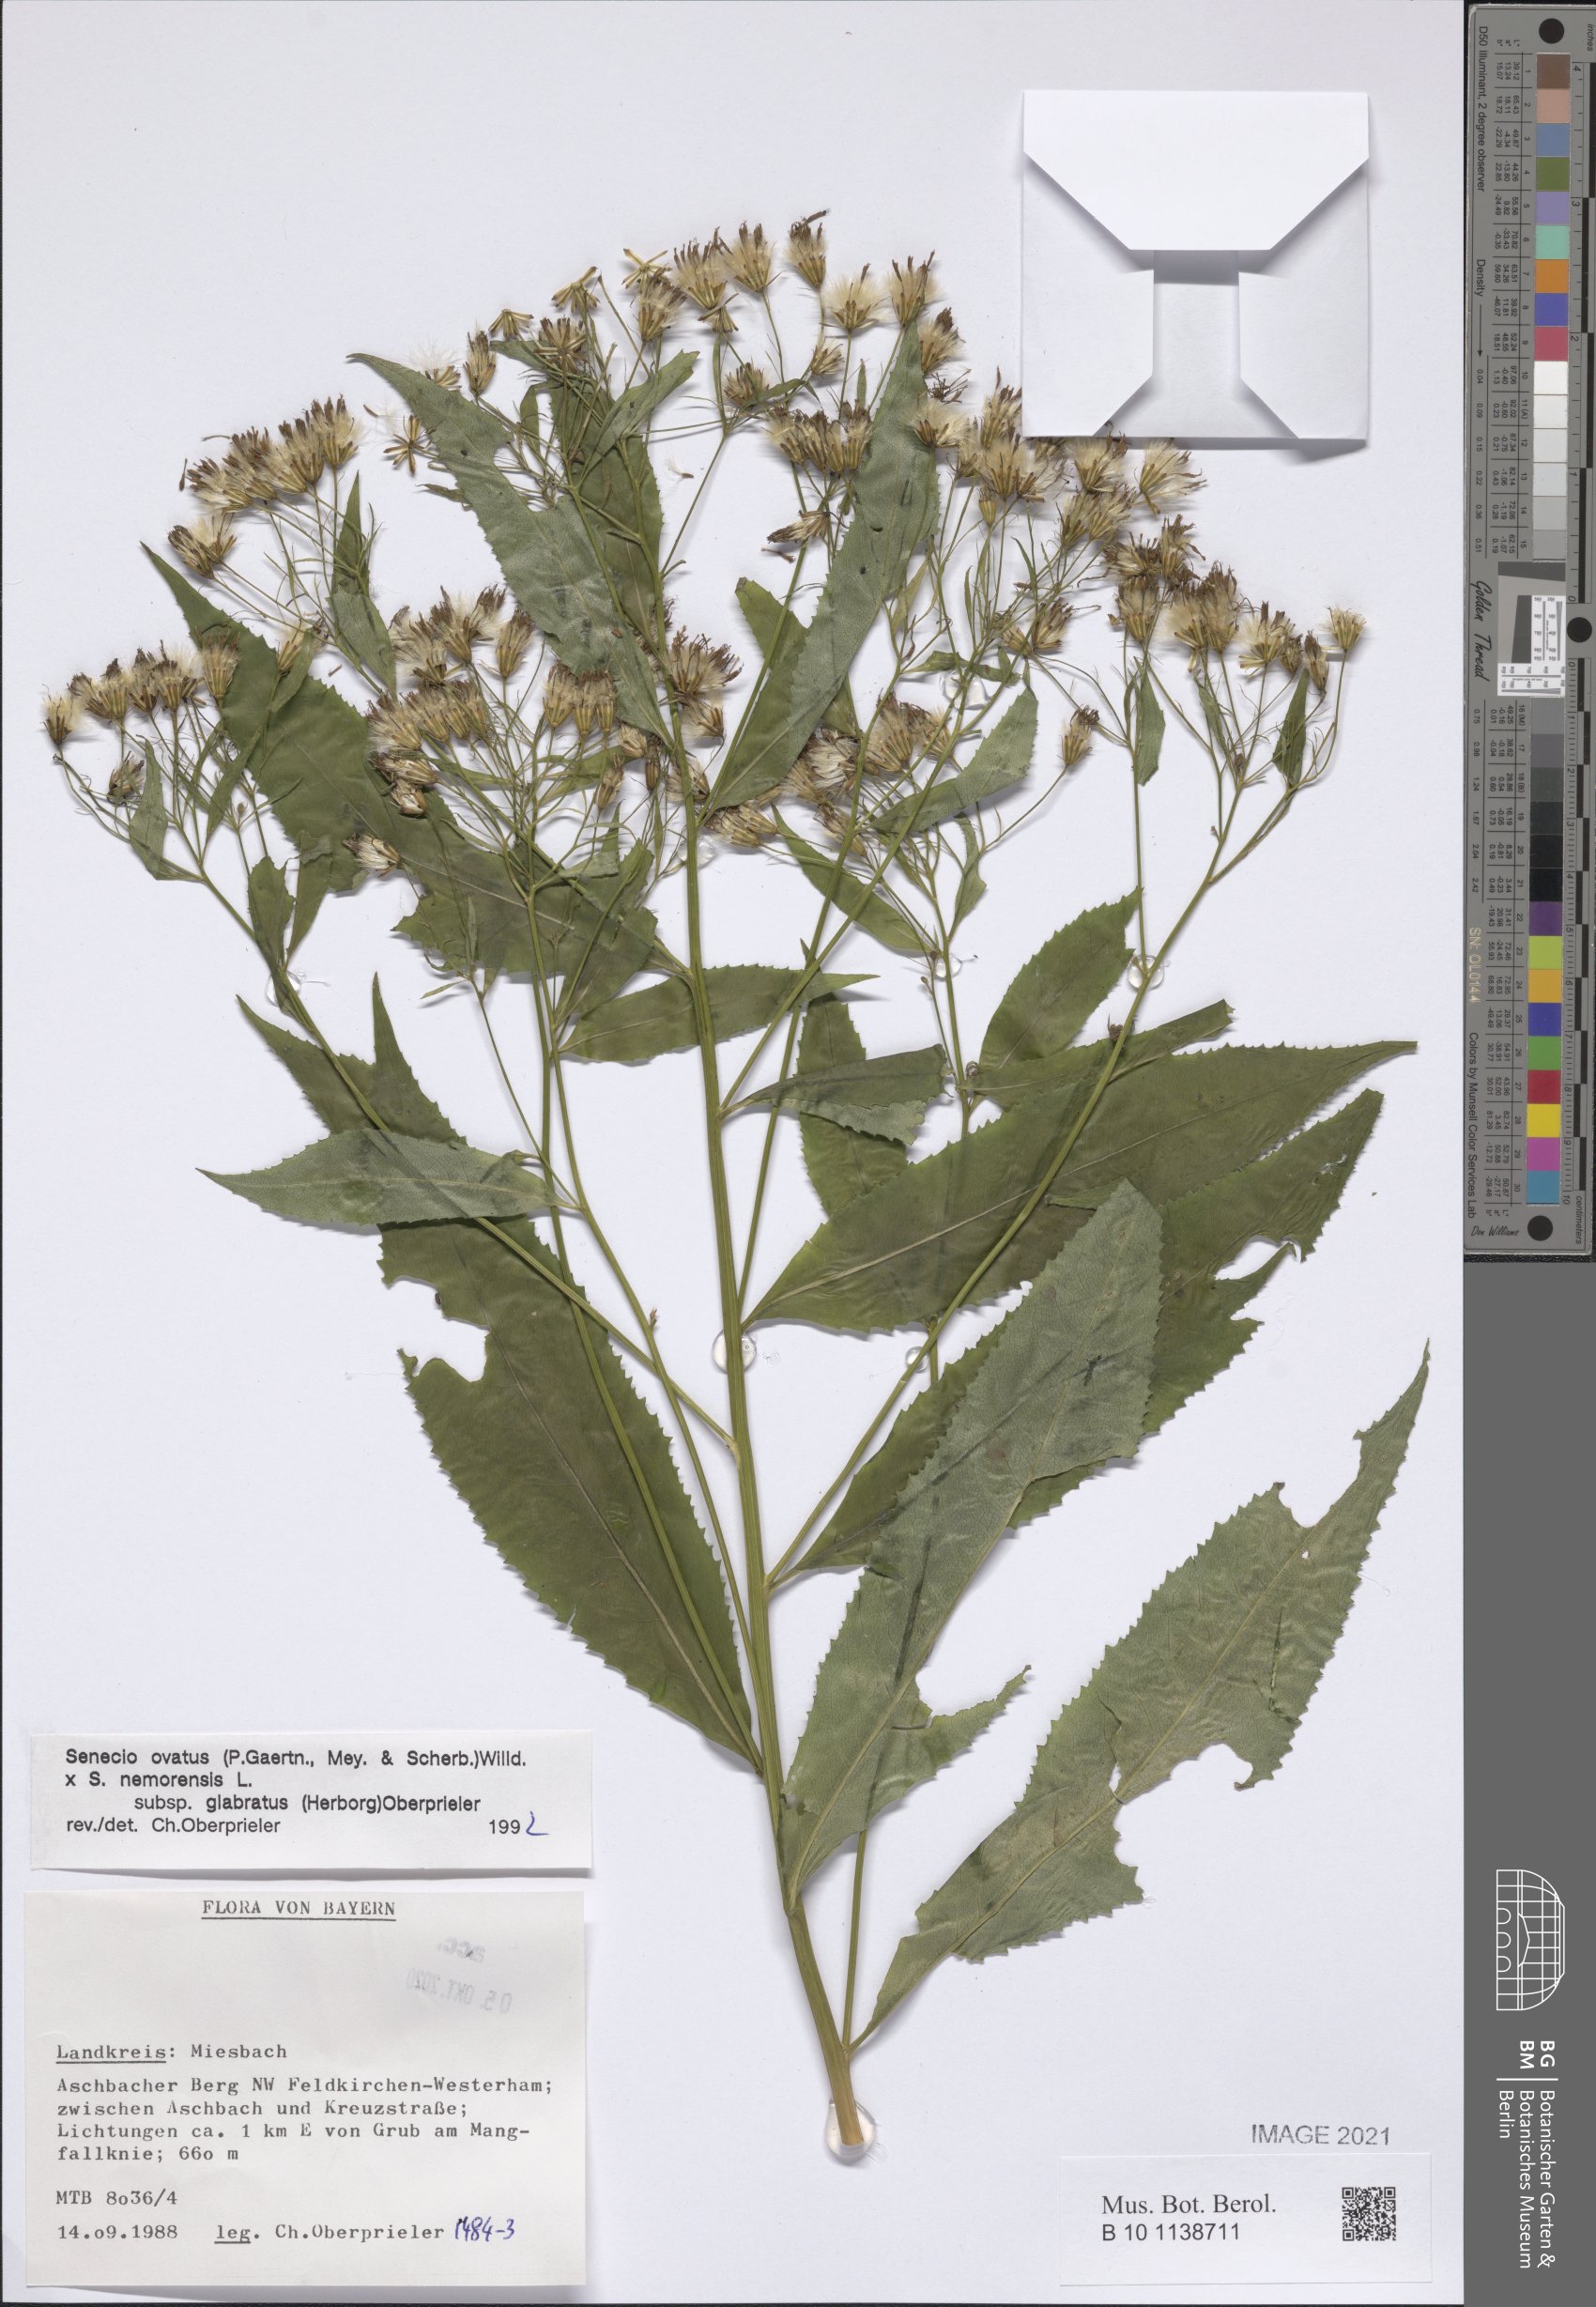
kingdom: Plantae
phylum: Tracheophyta
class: Magnoliopsida
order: Asterales
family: Asteraceae
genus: Senecio
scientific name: Senecio ovatus
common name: Wood ragwort
